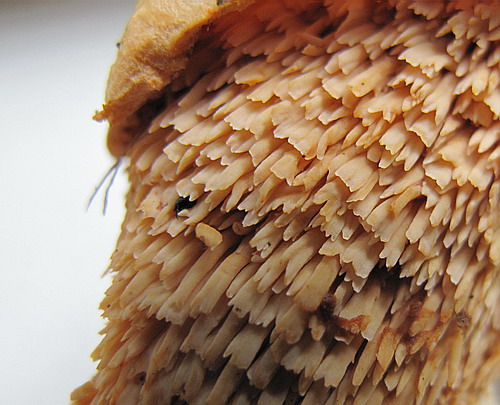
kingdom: Fungi
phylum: Basidiomycota
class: Agaricomycetes
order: Cantharellales
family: Hydnaceae
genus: Hydnum
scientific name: Hydnum ellipsosporum
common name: tandet pigsvamp
